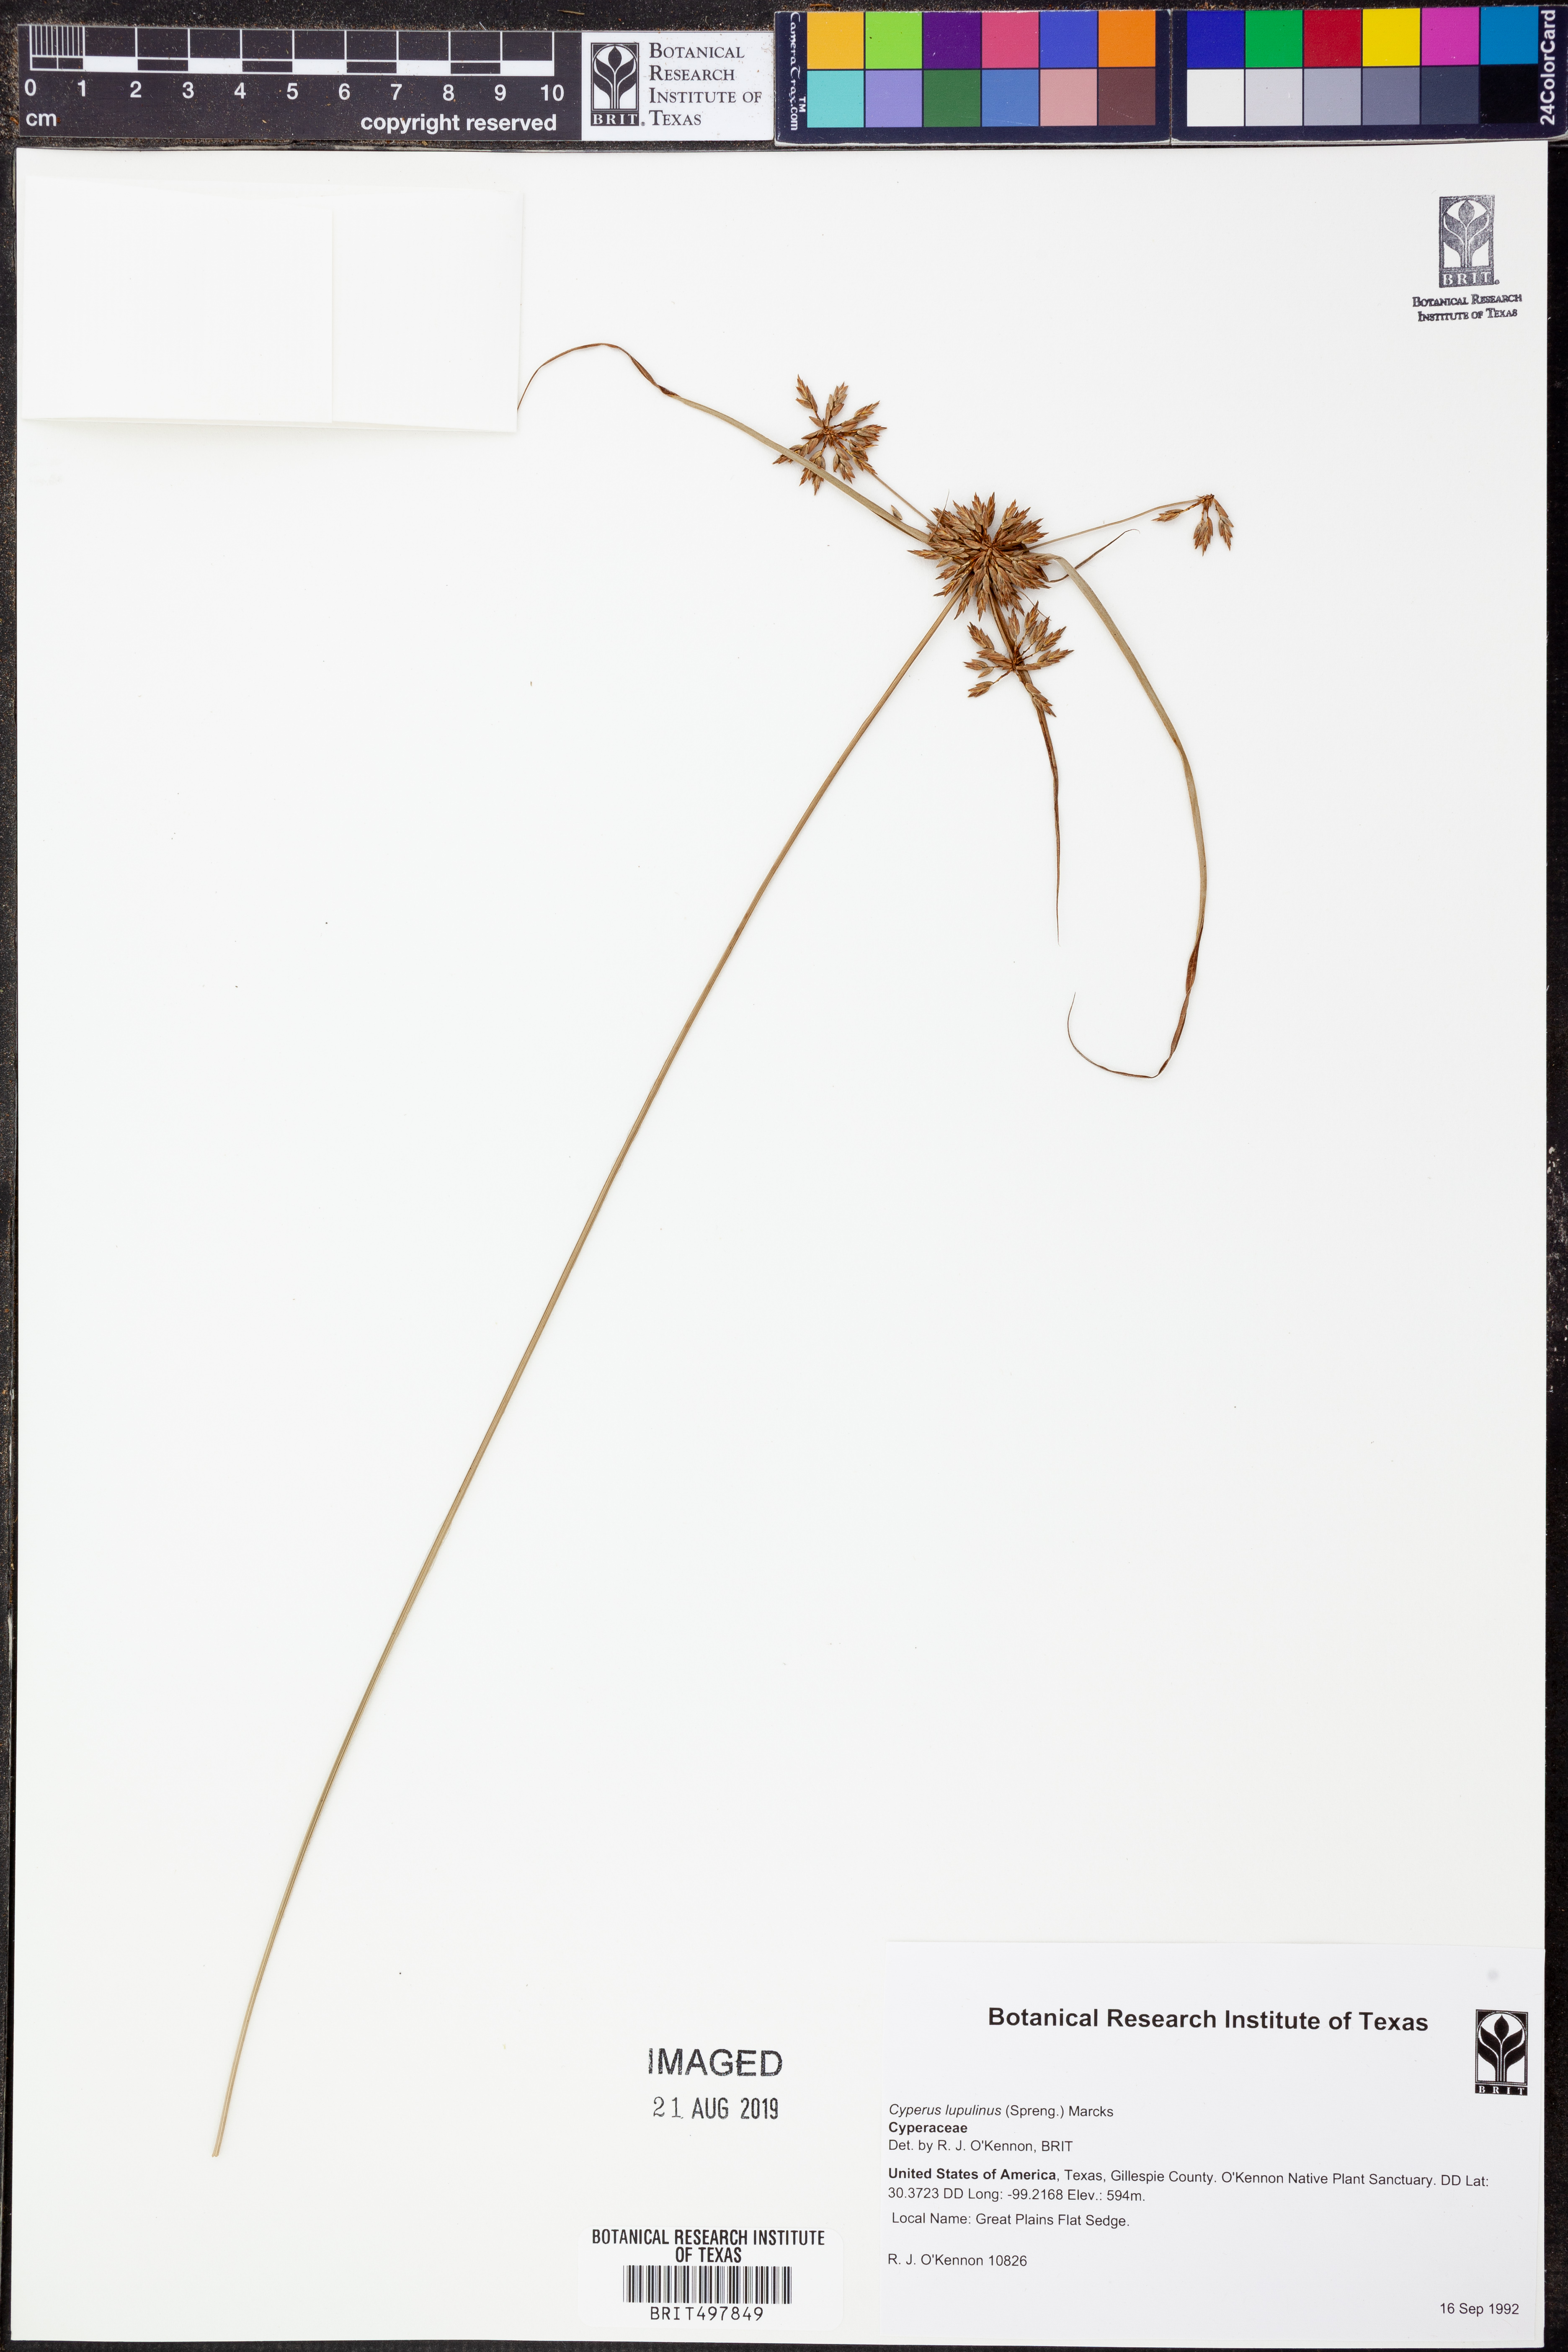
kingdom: Plantae
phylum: Tracheophyta
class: Liliopsida
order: Poales
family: Cyperaceae
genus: Cyperus
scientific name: Cyperus lupulinus
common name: Great plains flatsedge
